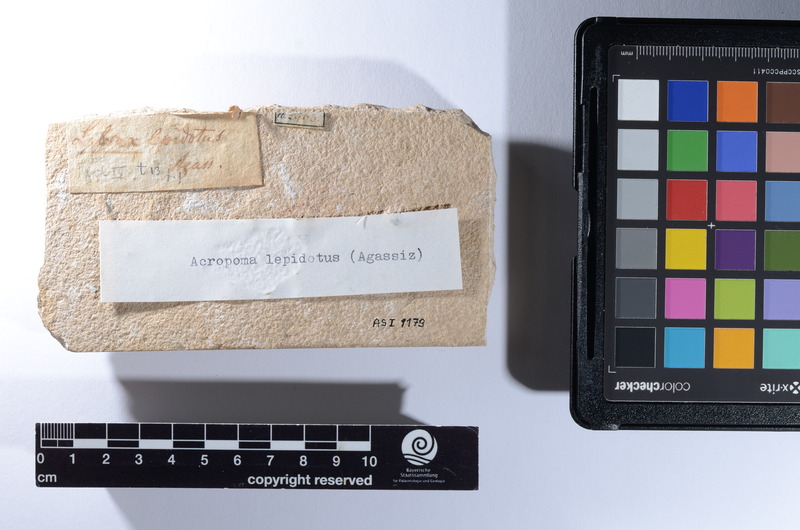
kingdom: Animalia
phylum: Chordata
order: Perciformes
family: Acropomatidae
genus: Acropoma
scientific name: Acropoma lepidotum
